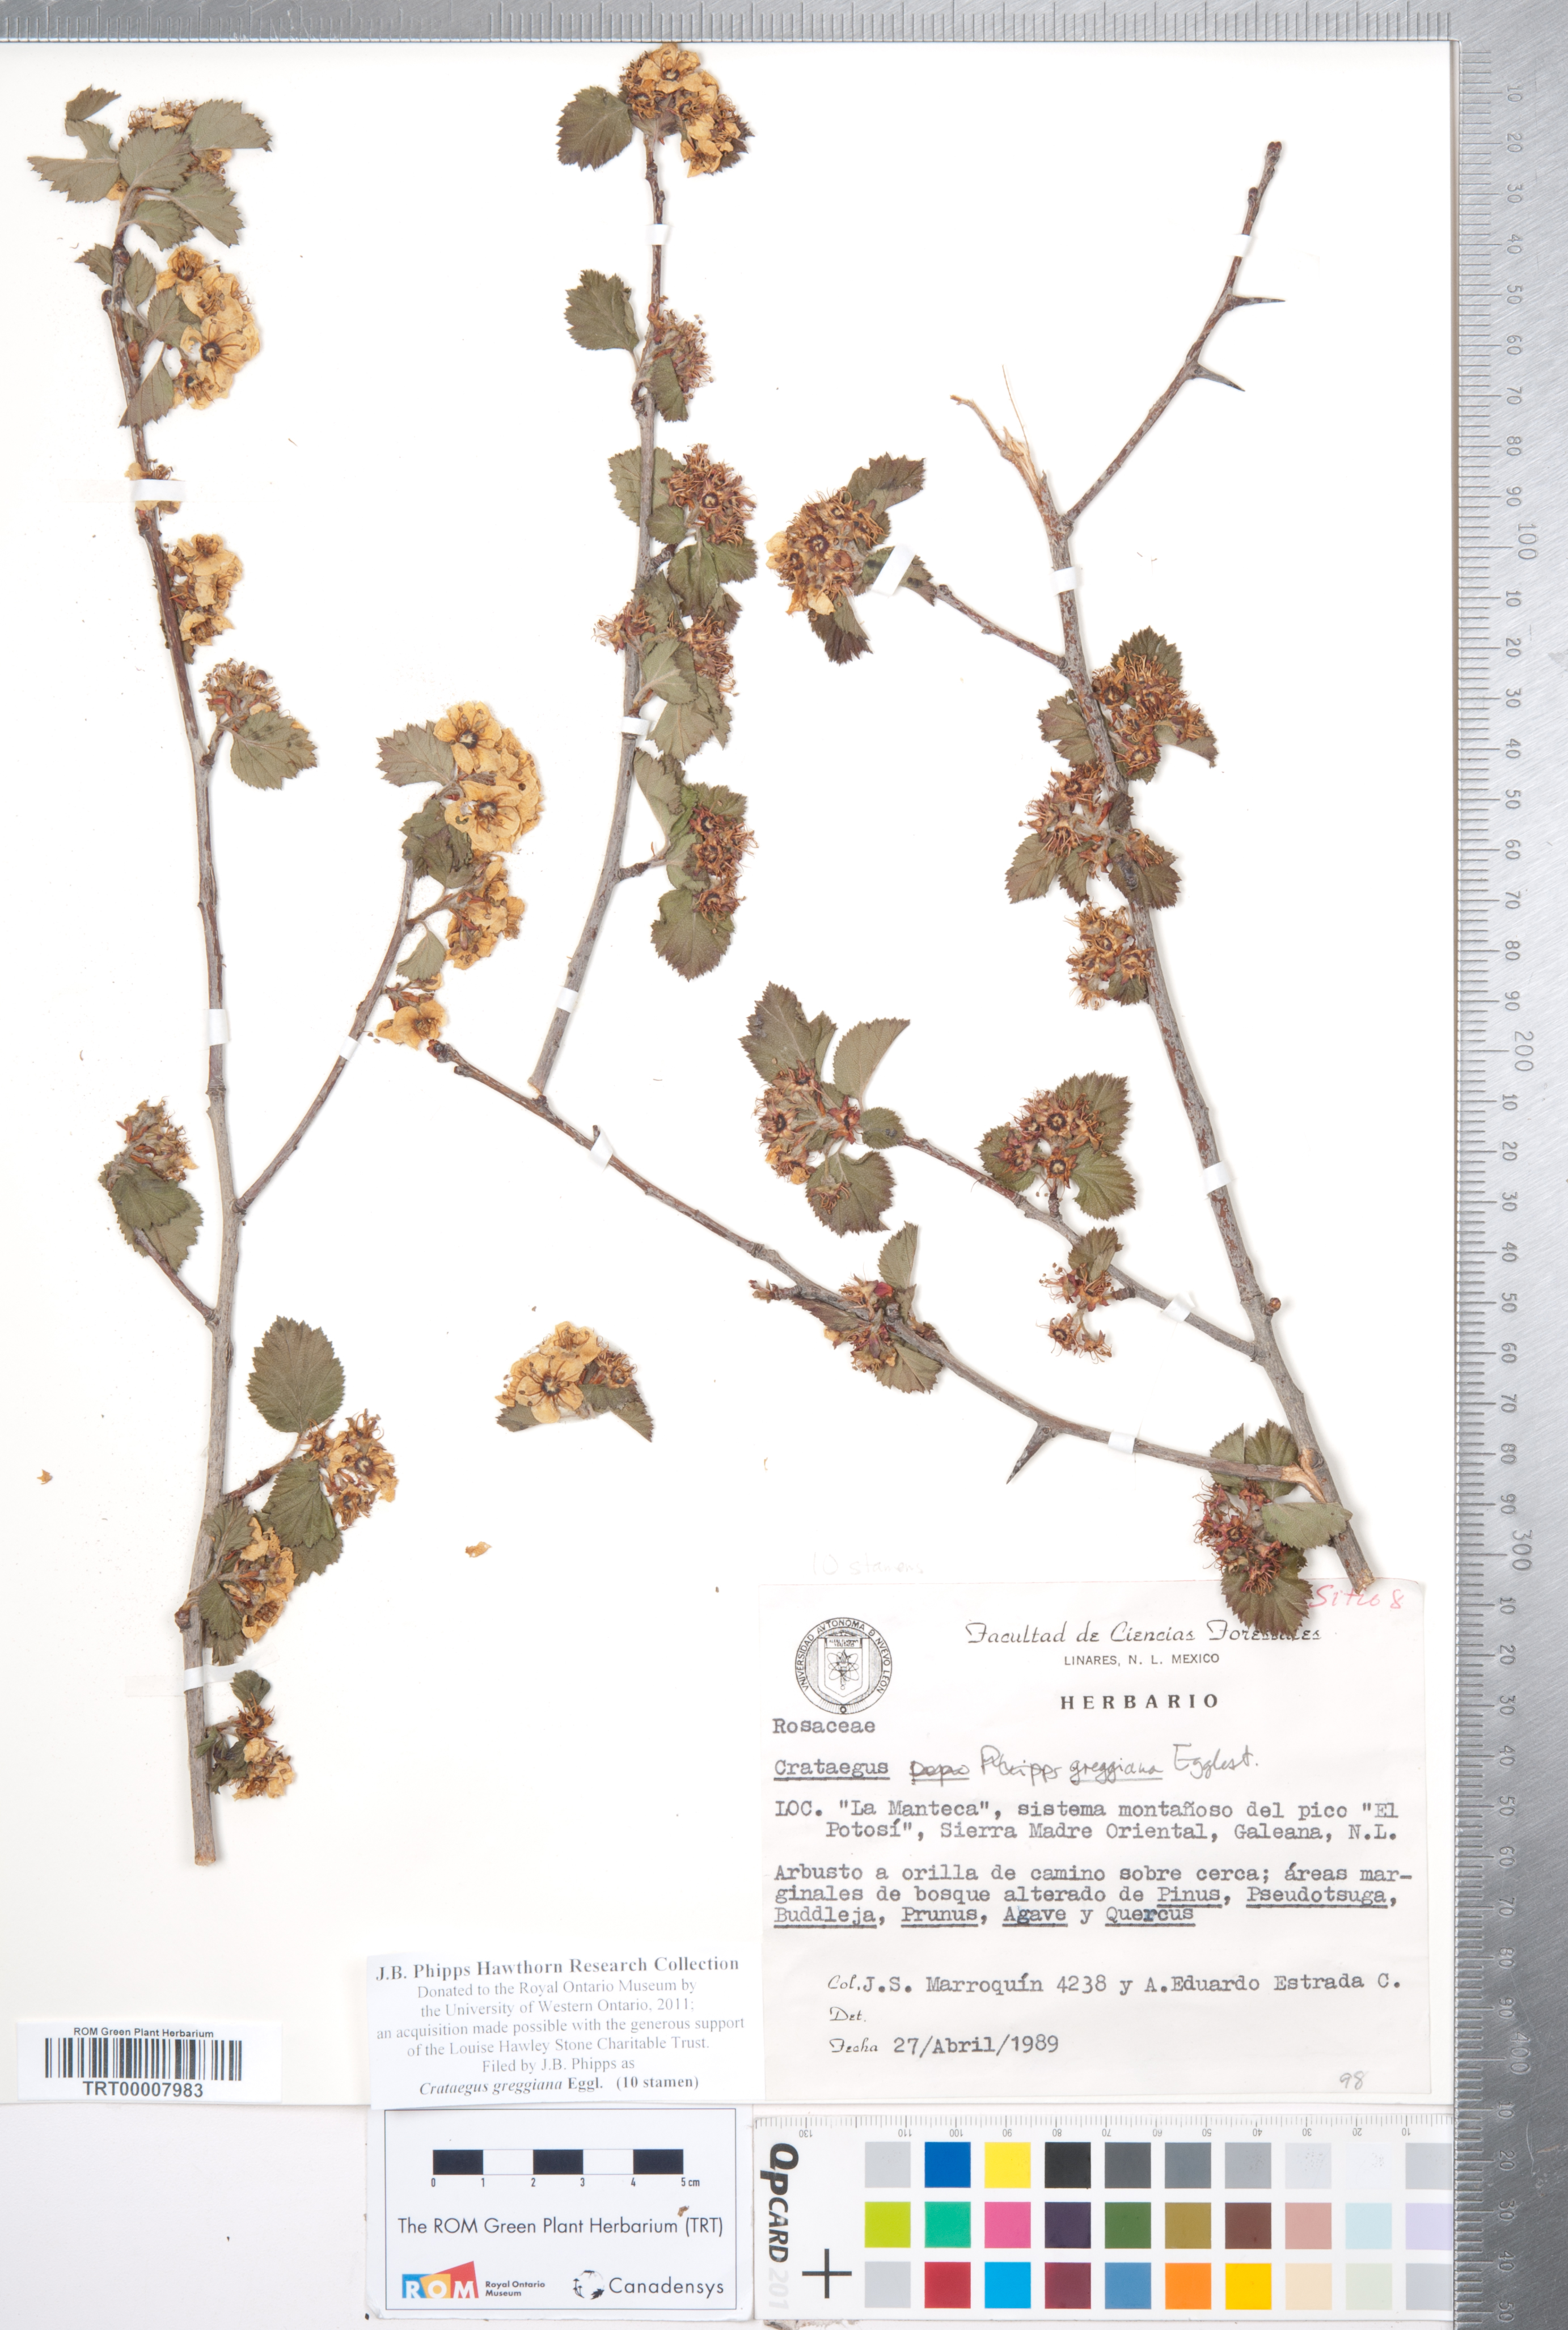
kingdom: Plantae
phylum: Tracheophyta
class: Magnoliopsida
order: Rosales
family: Rosaceae
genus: Crataegus
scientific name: Crataegus greggiana
